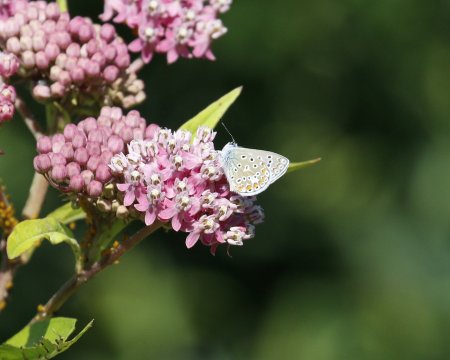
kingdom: Animalia
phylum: Arthropoda
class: Insecta
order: Lepidoptera
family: Lycaenidae
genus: Polyommatus
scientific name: Polyommatus icarus
